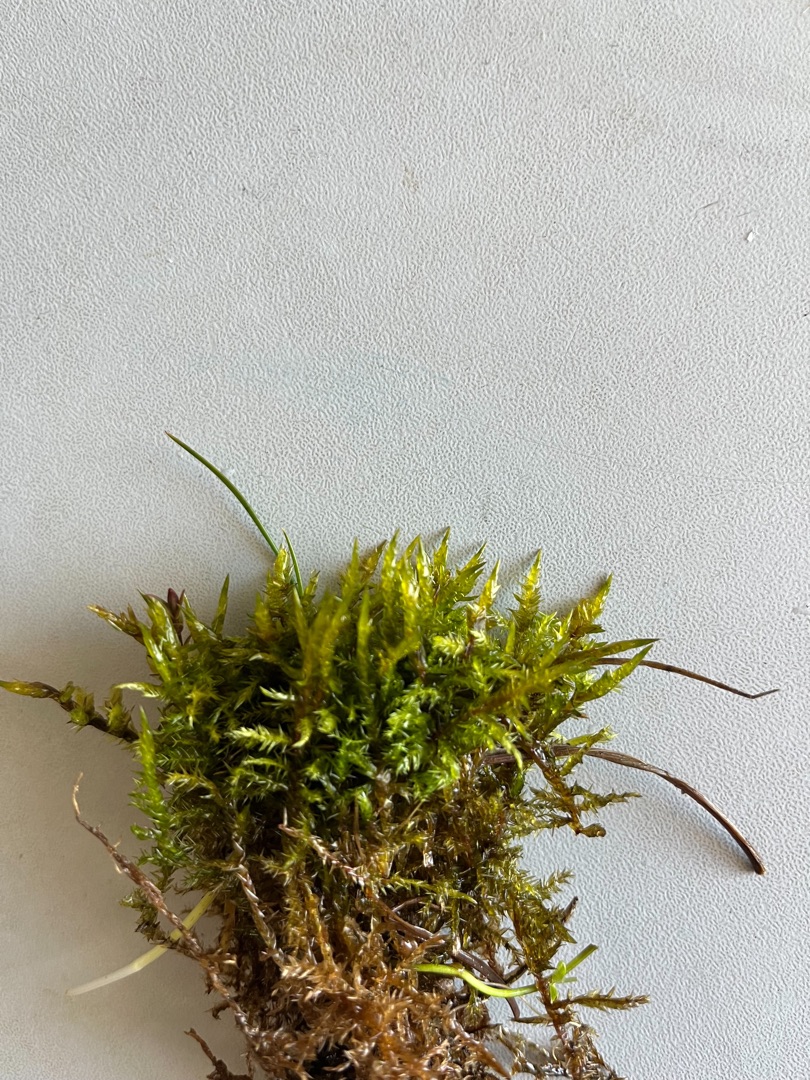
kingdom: Plantae
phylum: Bryophyta
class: Bryopsida
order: Hypnales
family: Pylaisiaceae
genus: Calliergonella
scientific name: Calliergonella cuspidata
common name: Spids spydmos
